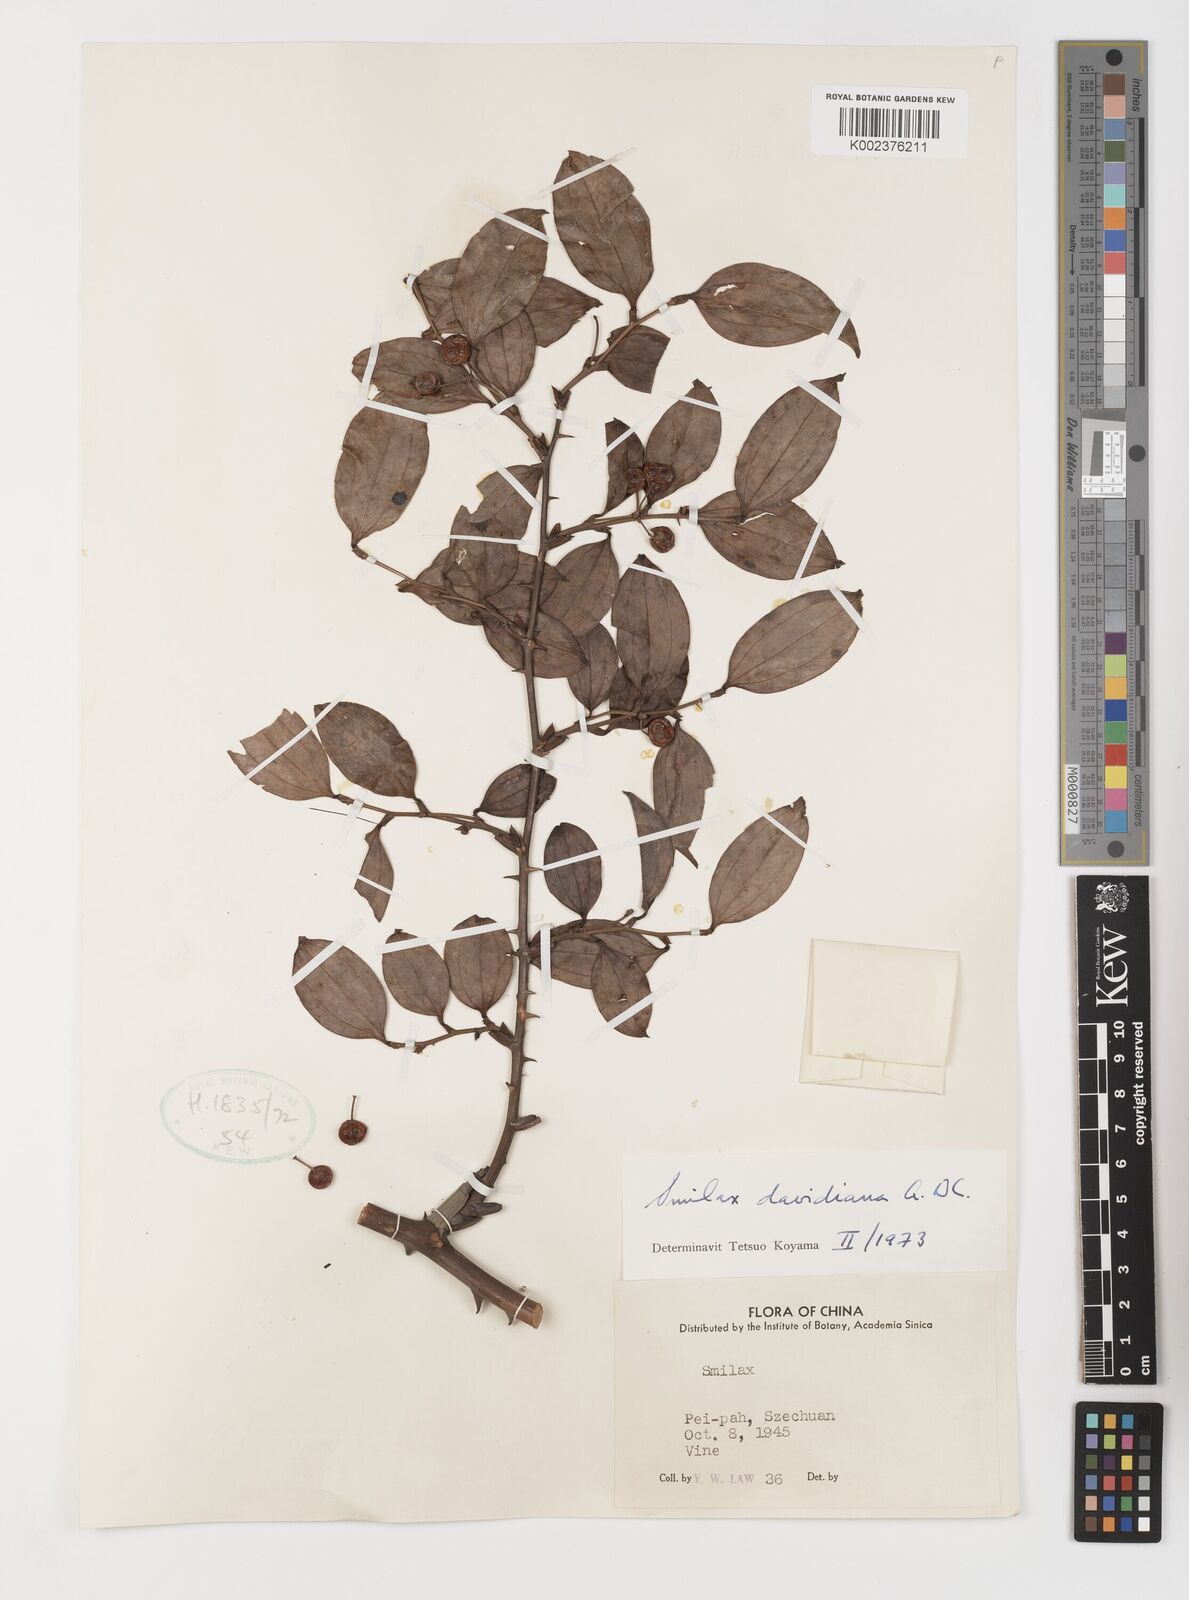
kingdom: Plantae
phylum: Tracheophyta
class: Liliopsida
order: Liliales
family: Smilacaceae
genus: Smilax
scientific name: Smilax davidiana
